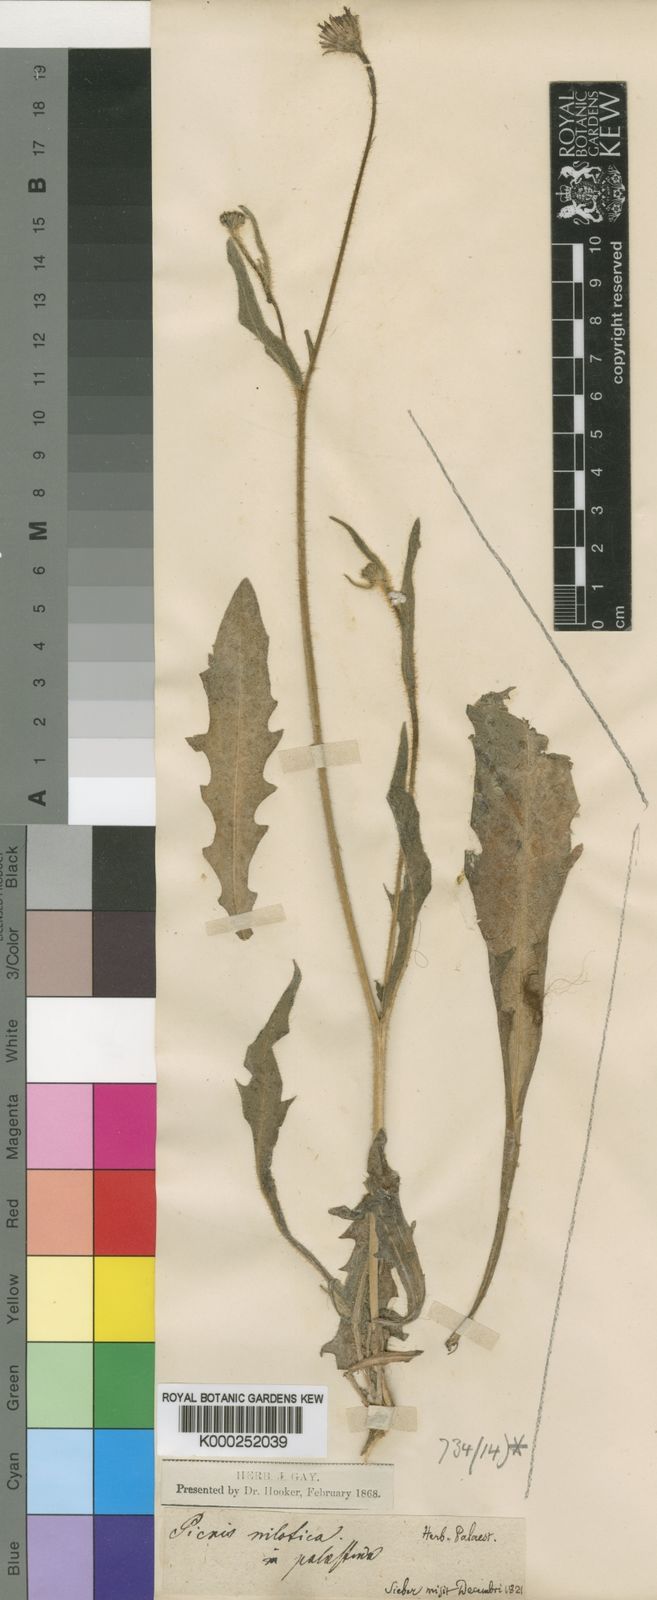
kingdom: Plantae
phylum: Tracheophyta
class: Magnoliopsida
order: Asterales
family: Asteraceae
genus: Picris
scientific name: Picris sulphurea
